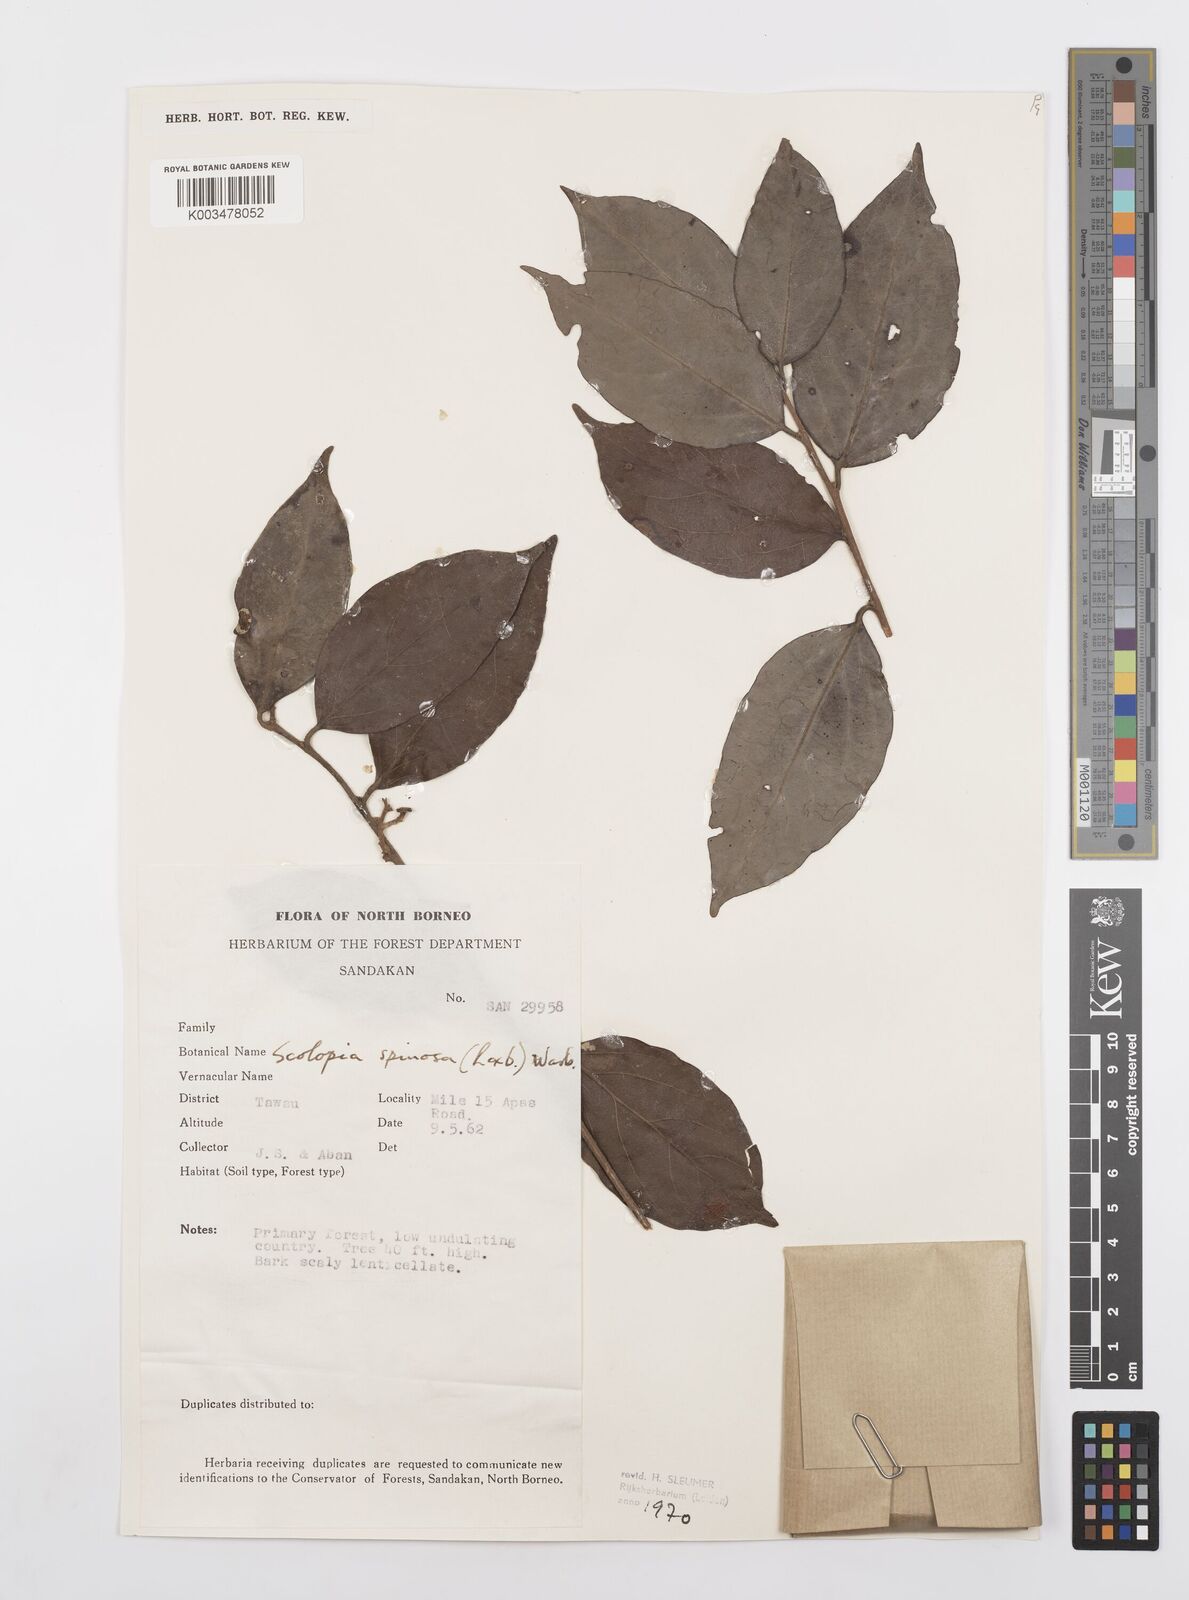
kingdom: Plantae
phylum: Tracheophyta
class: Magnoliopsida
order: Malpighiales
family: Salicaceae
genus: Scolopia
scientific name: Scolopia spinosa
